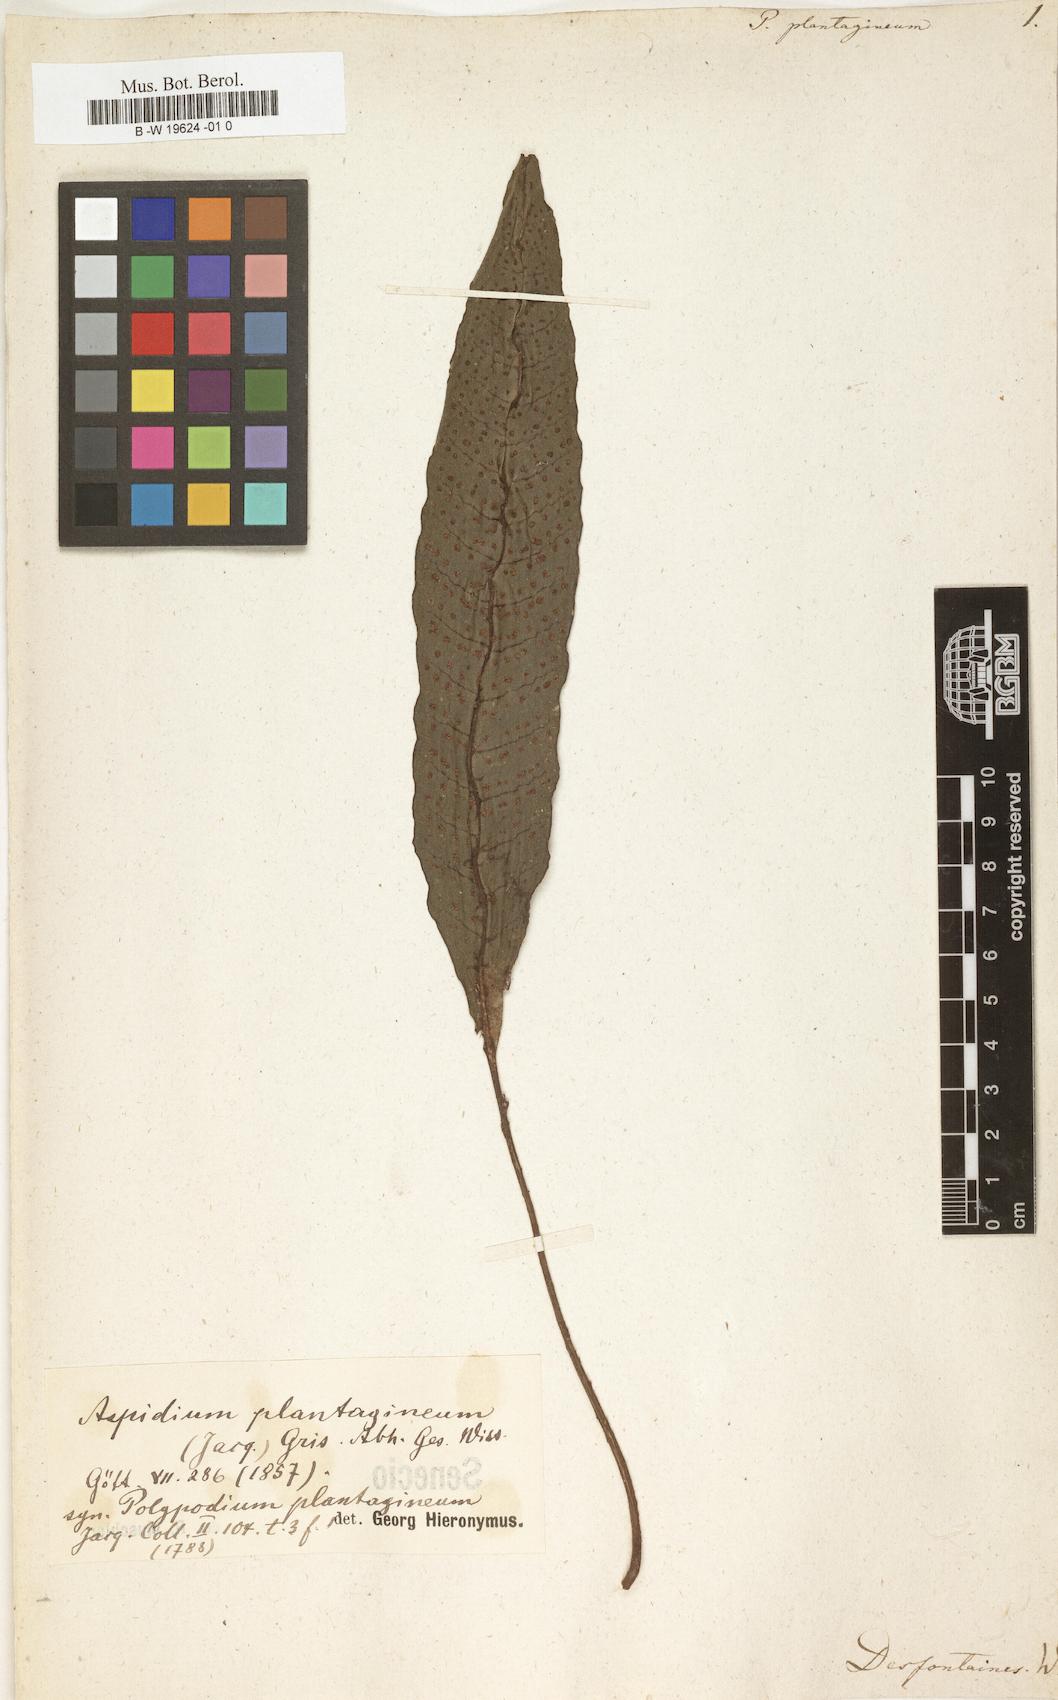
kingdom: Plantae
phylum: Tracheophyta
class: Polypodiopsida
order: Polypodiales
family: Lomariopsidaceae
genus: Dracoglossum
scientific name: Dracoglossum plantagineum
